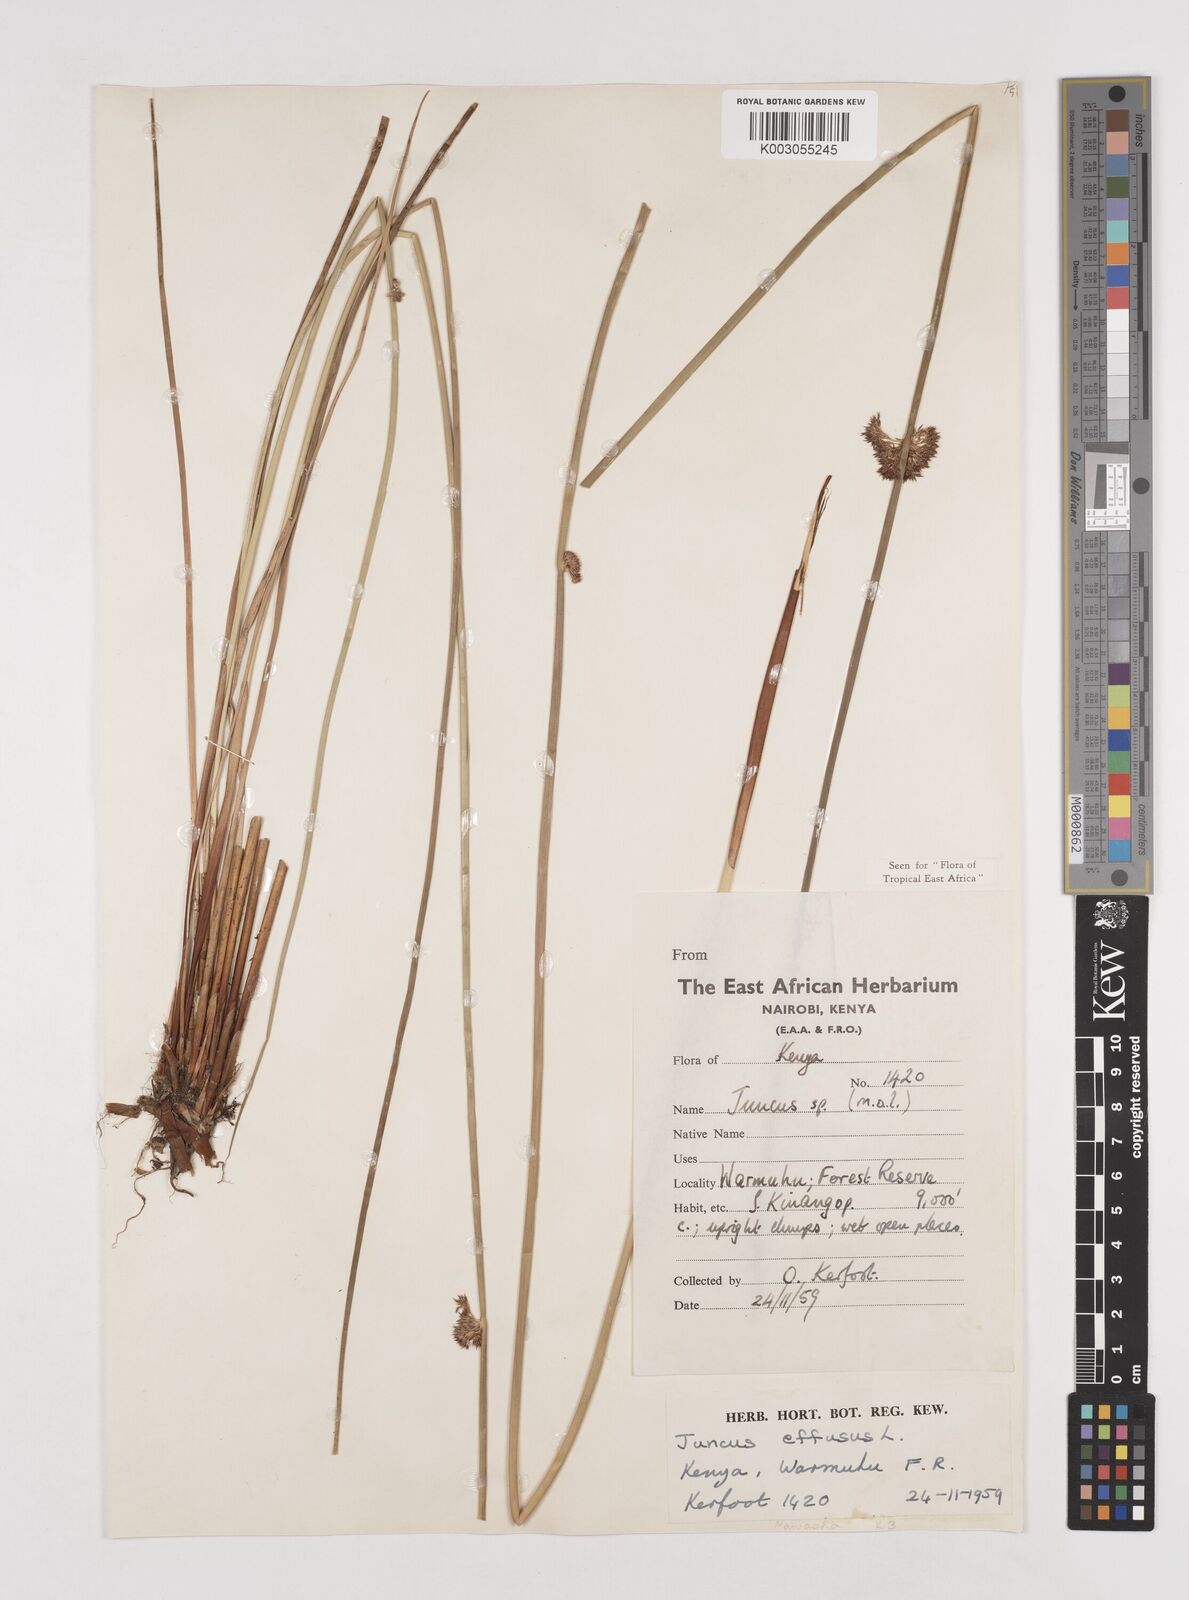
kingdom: Plantae
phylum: Tracheophyta
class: Liliopsida
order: Poales
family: Juncaceae
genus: Juncus
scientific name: Juncus effusus
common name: Soft rush
